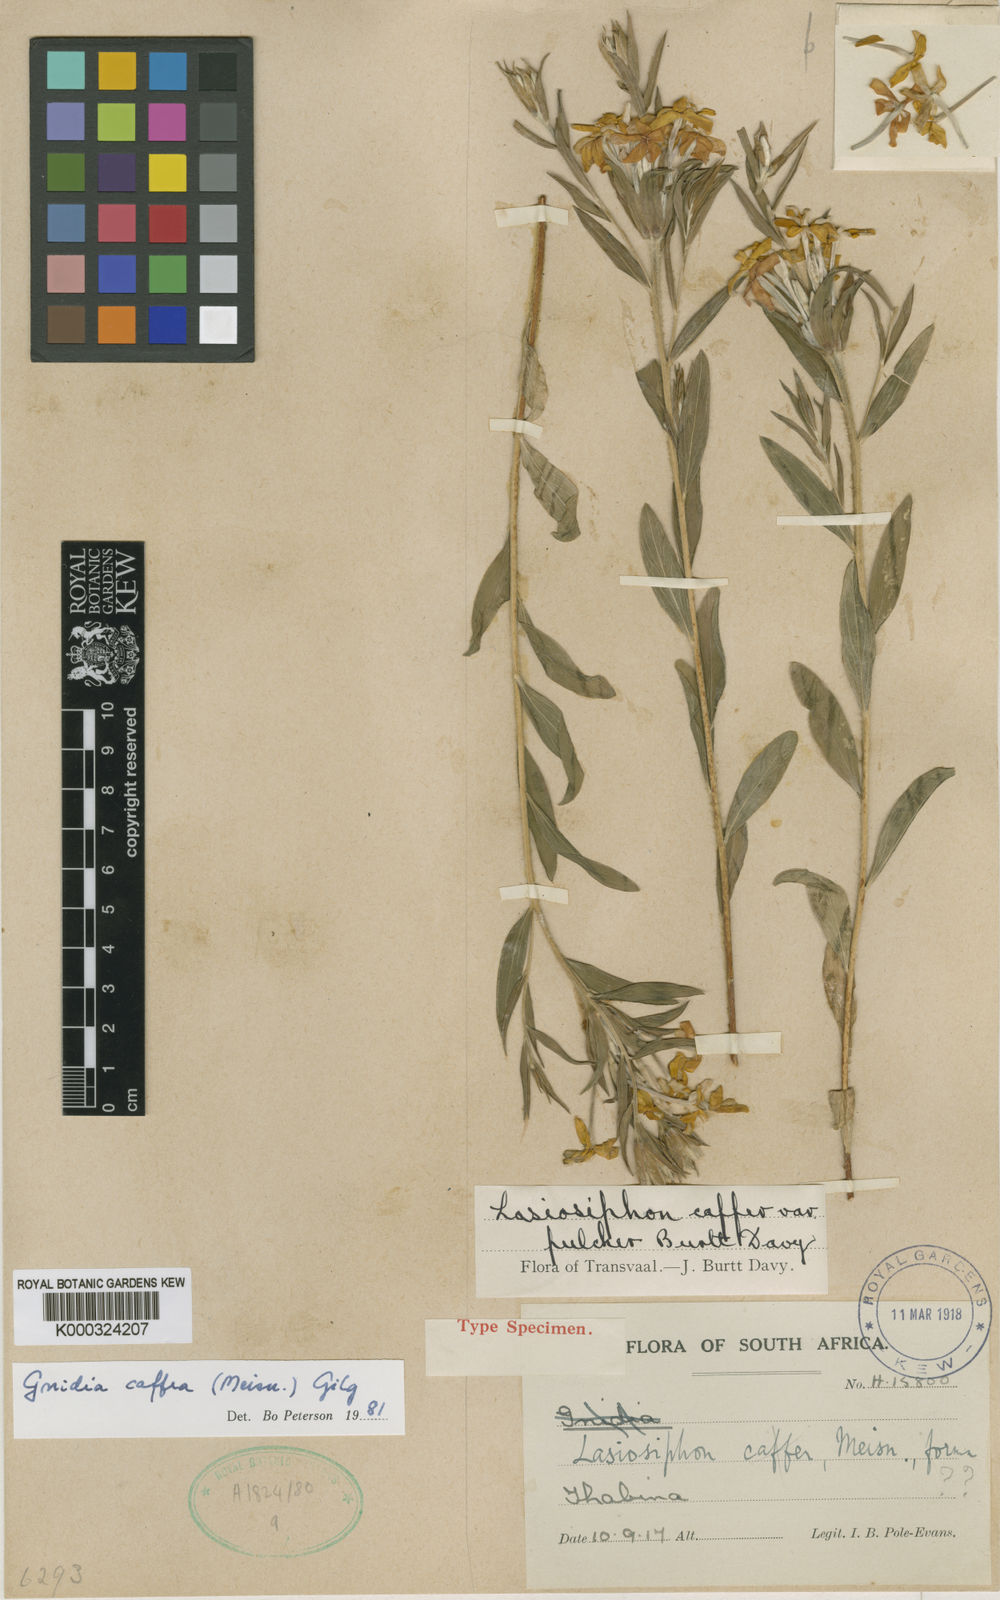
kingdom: Plantae
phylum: Tracheophyta
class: Magnoliopsida
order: Malvales
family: Thymelaeaceae
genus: Gnidia
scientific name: Gnidia
